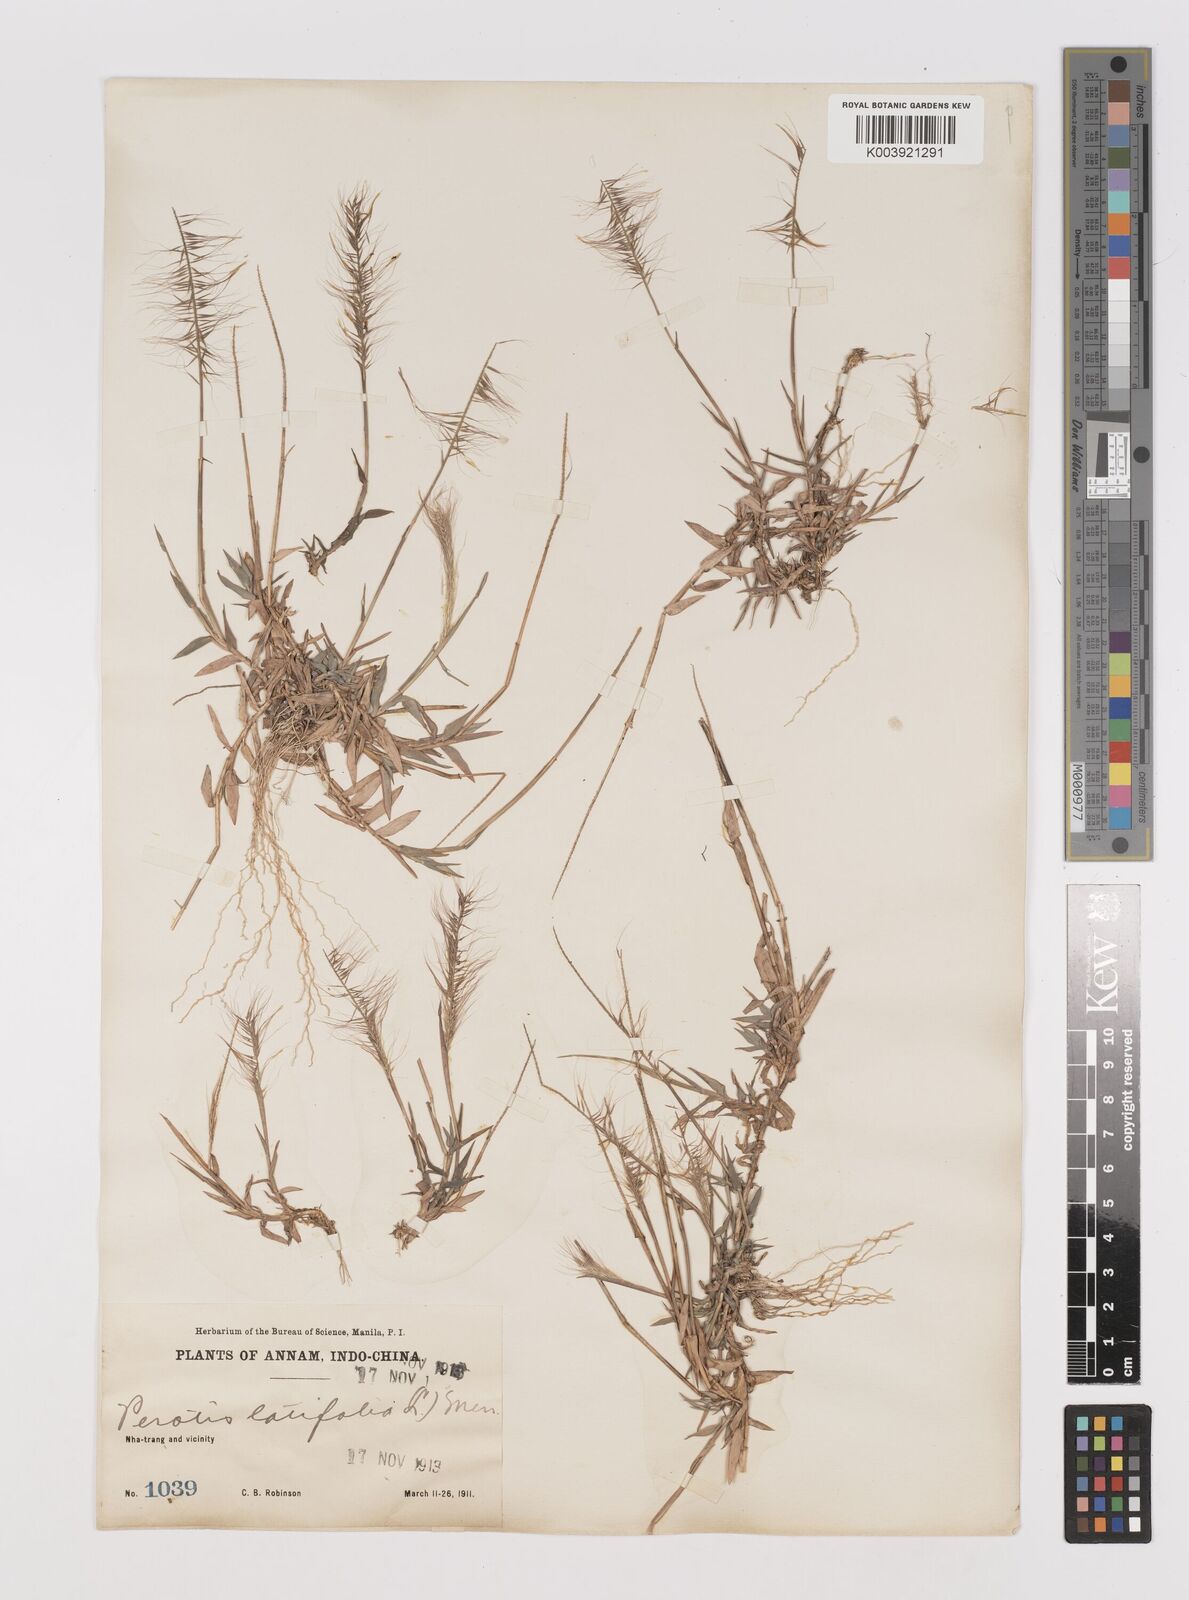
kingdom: Plantae
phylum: Tracheophyta
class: Liliopsida
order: Poales
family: Poaceae
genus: Perotis
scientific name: Perotis rara
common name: Comet grass
